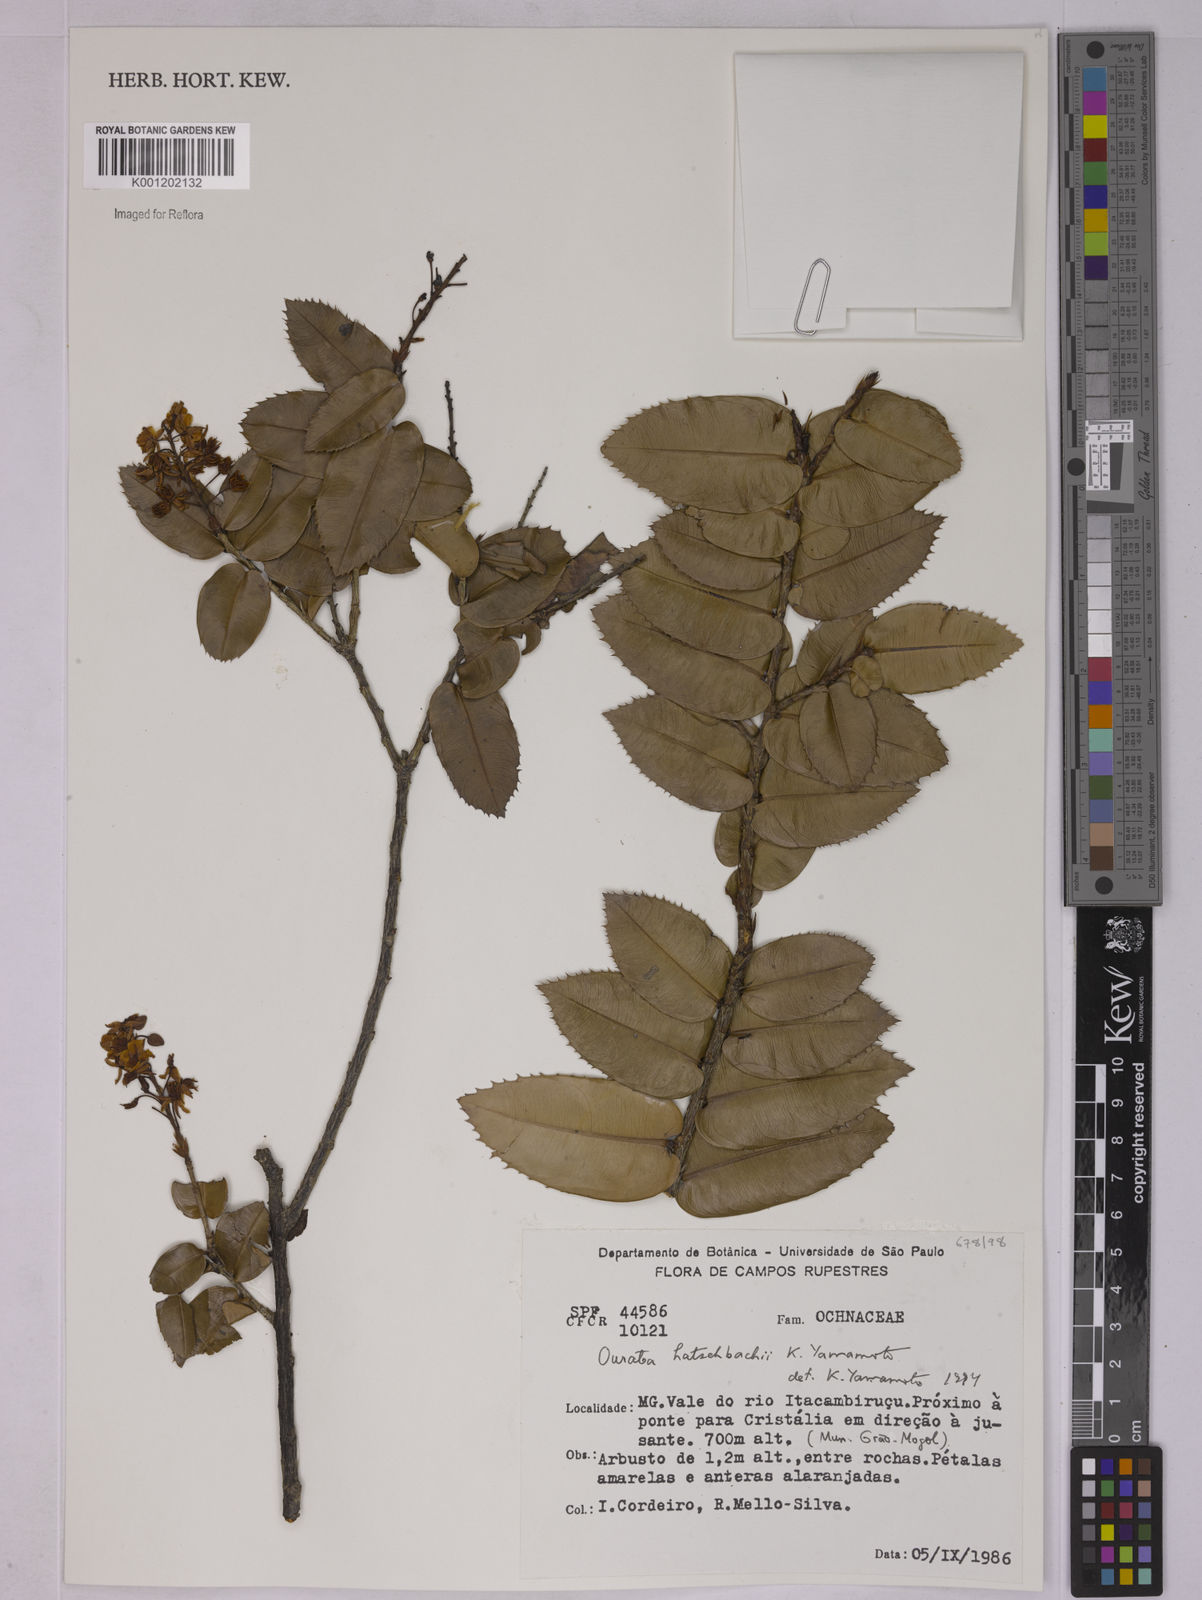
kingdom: Plantae
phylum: Tracheophyta
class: Magnoliopsida
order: Malpighiales
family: Ochnaceae
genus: Ouratea
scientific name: Ouratea hatschbachii
